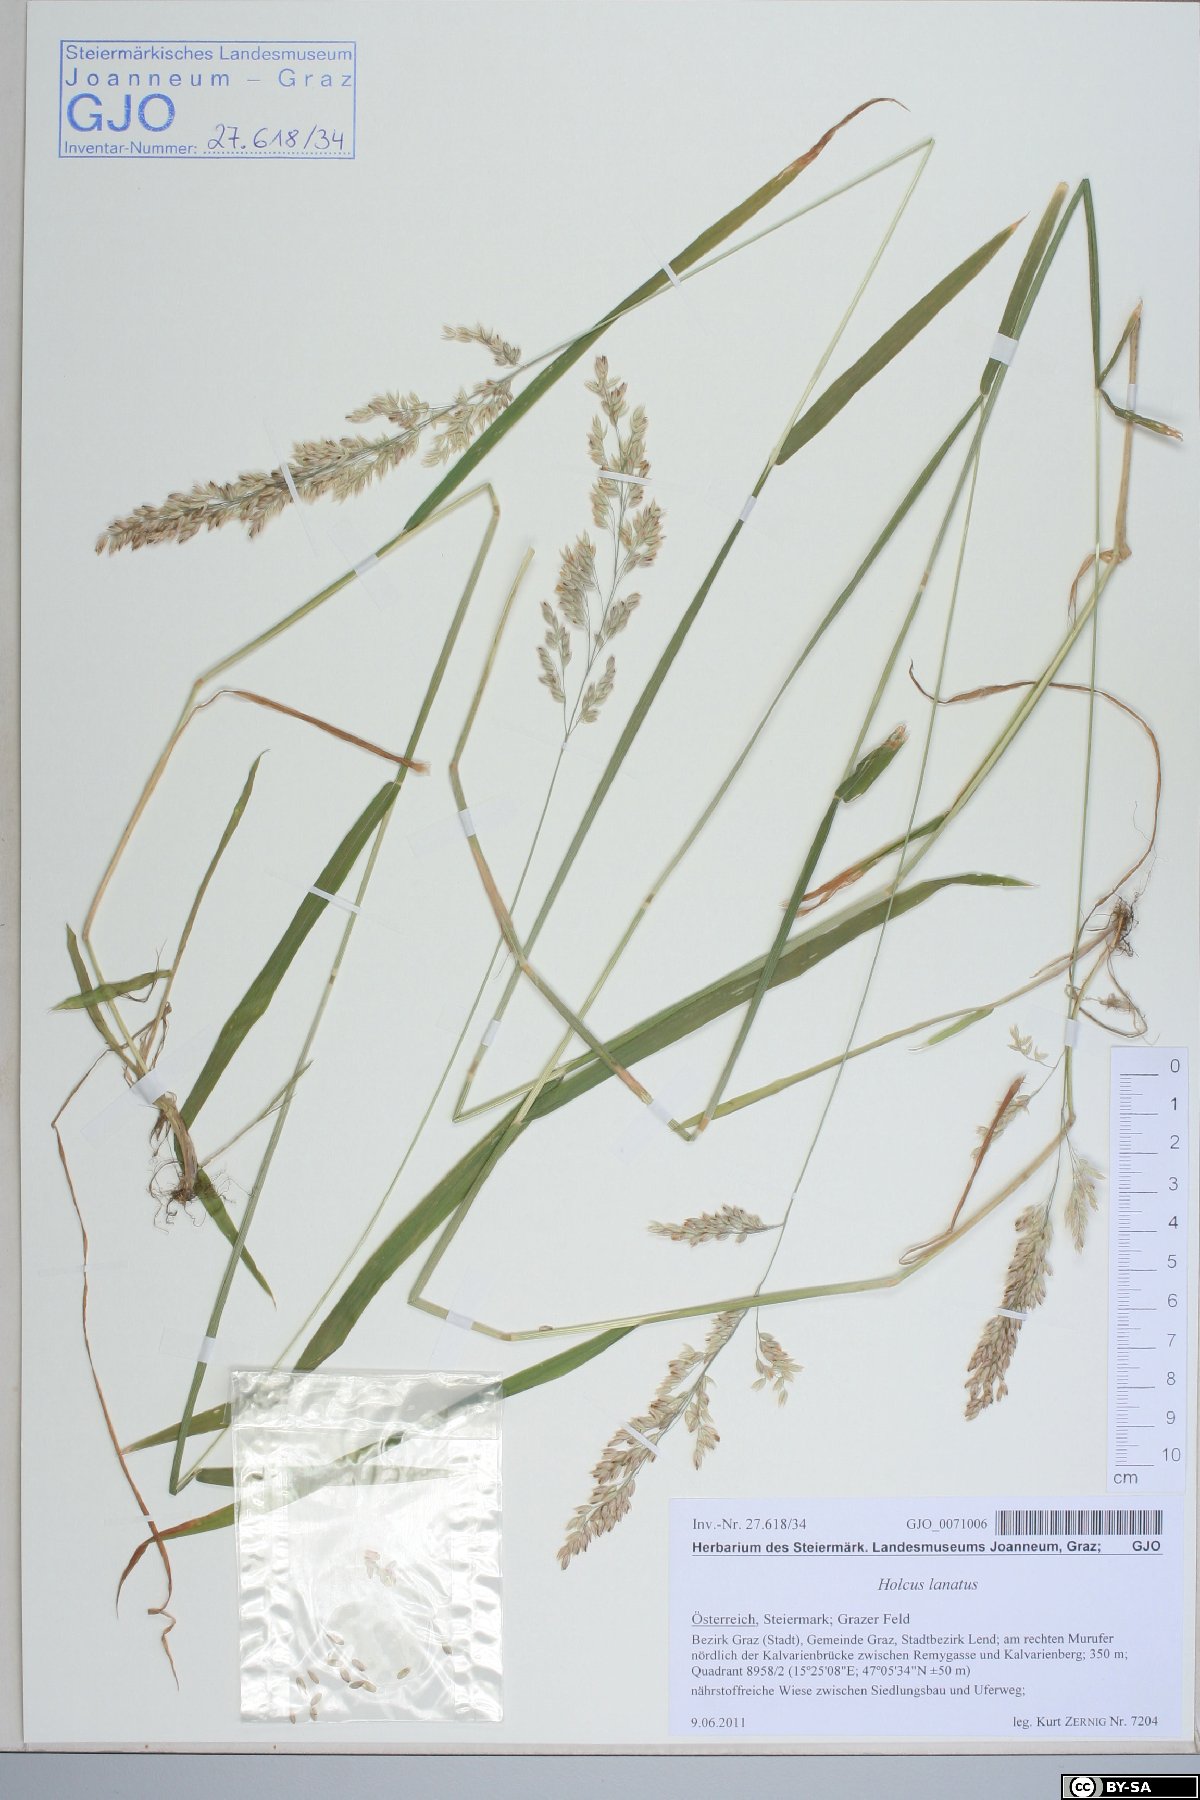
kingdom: Plantae
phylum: Tracheophyta
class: Liliopsida
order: Poales
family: Poaceae
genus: Holcus
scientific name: Holcus lanatus
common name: Yorkshire-fog
